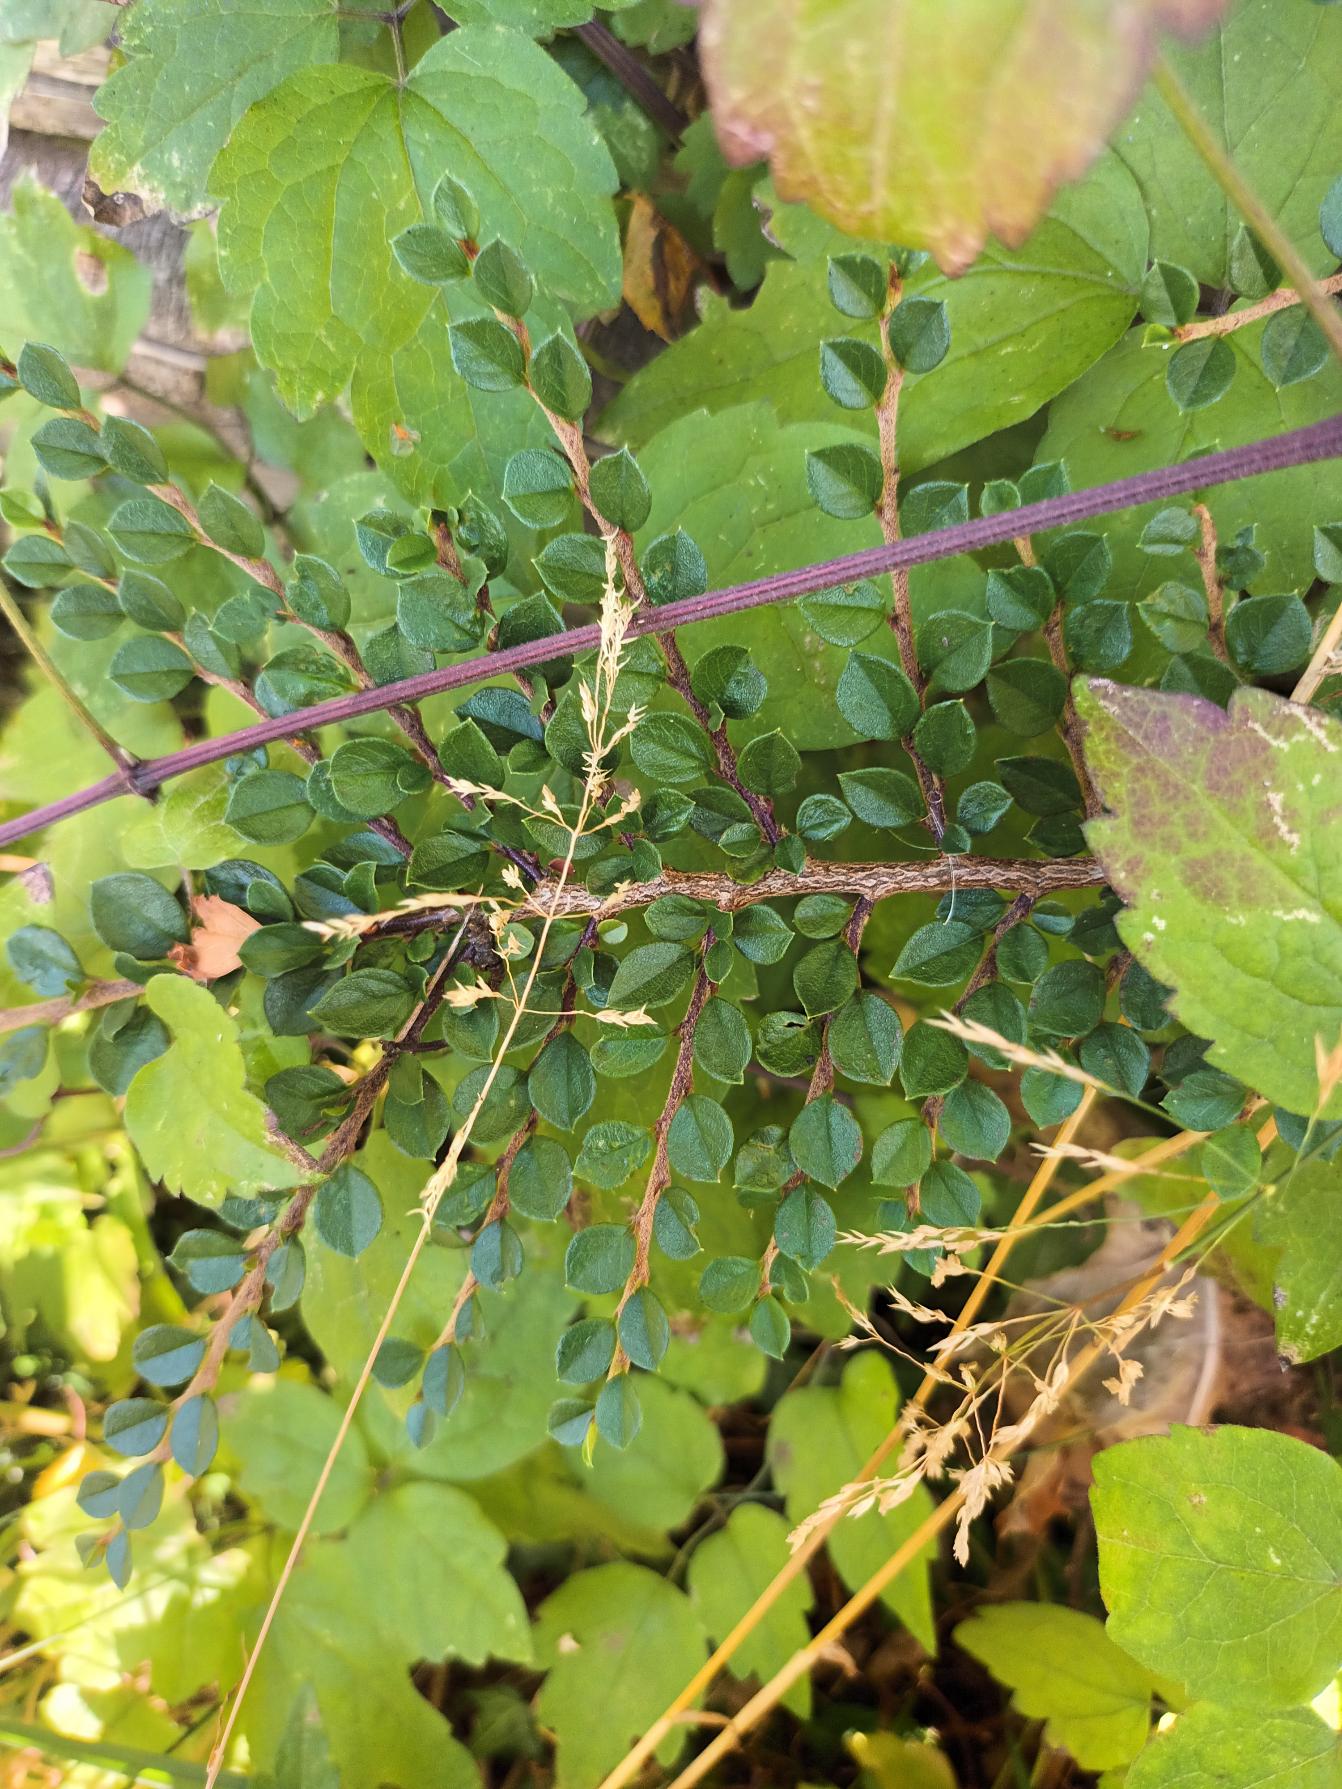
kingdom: Plantae
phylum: Tracheophyta
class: Magnoliopsida
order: Rosales
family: Rosaceae
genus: Cotoneaster
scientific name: Cotoneaster horizontalis
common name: Lodret og vandret
